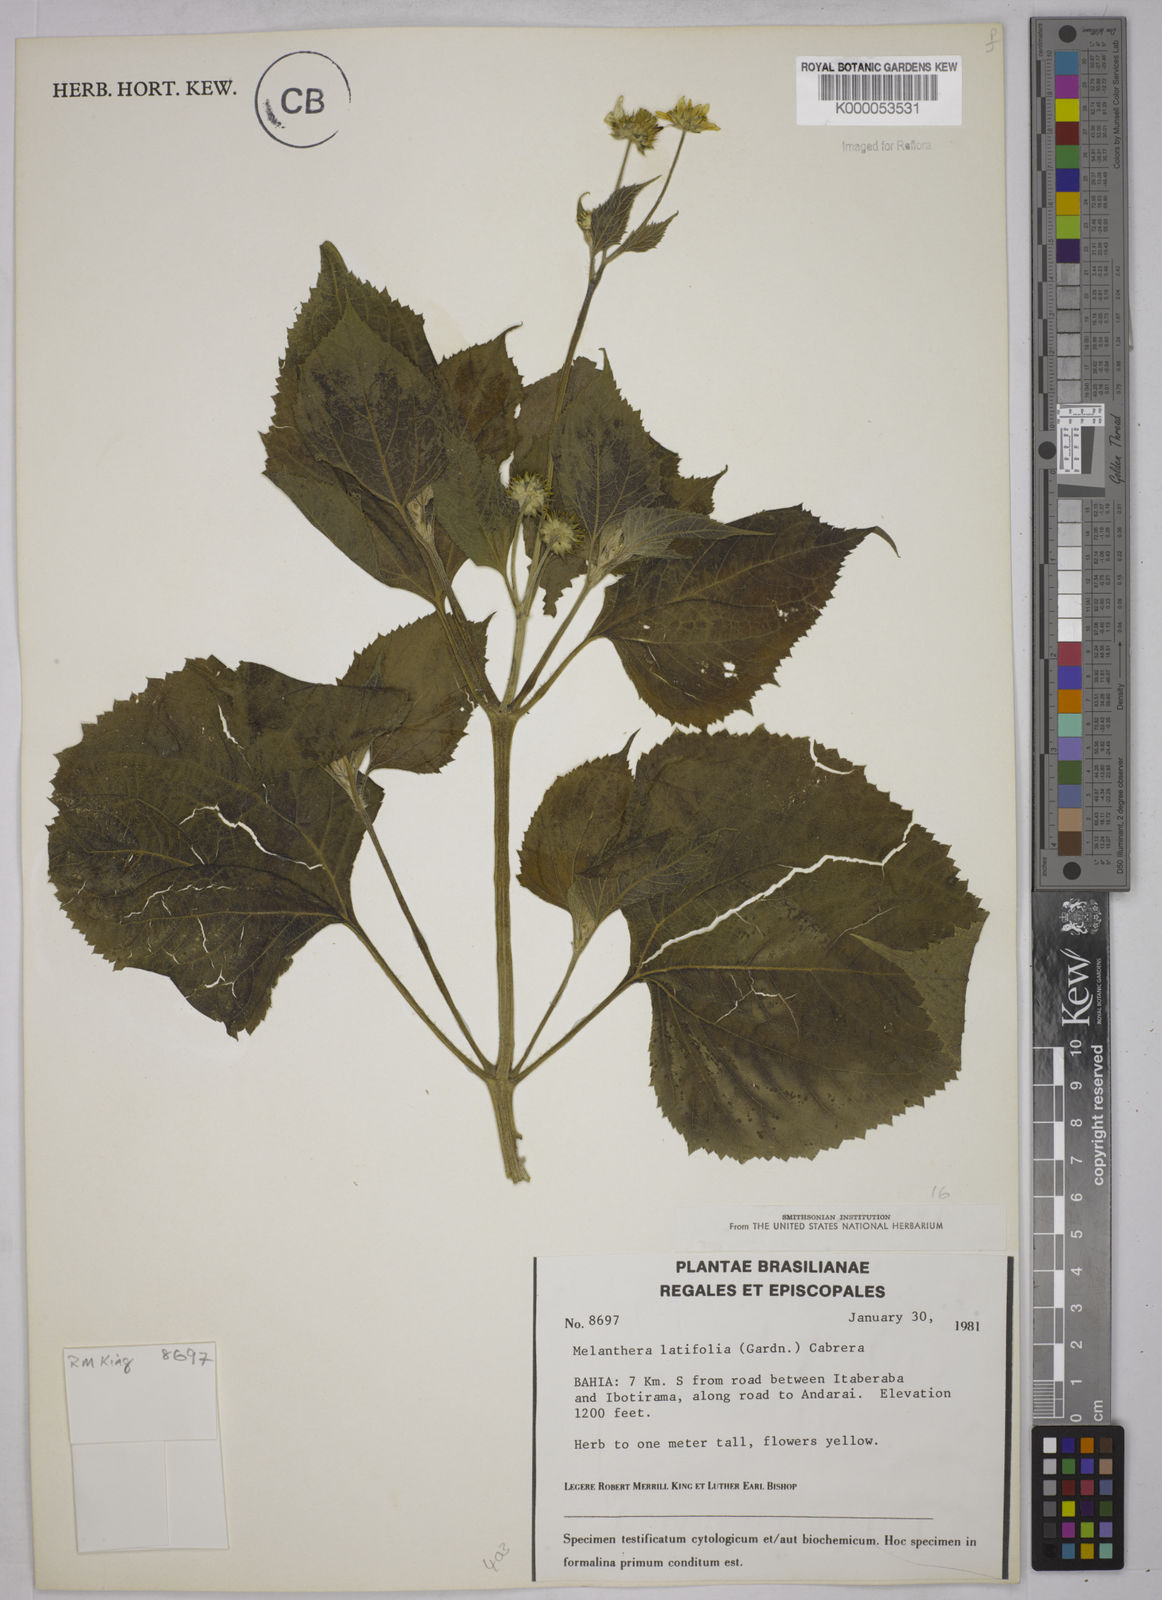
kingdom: Plantae
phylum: Tracheophyta
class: Magnoliopsida
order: Asterales
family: Asteraceae
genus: Echinocephalum
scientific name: Echinocephalum latifolium
